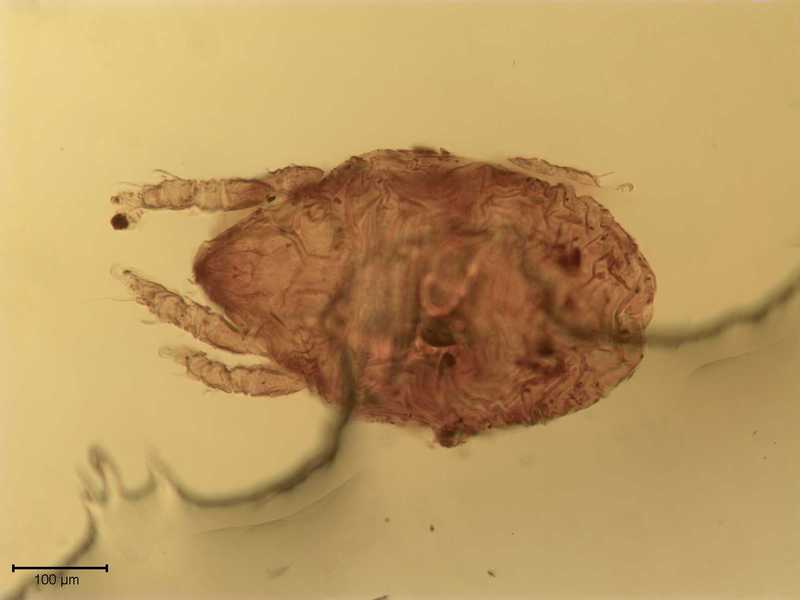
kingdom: Animalia
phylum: Arthropoda
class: Arachnida
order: Sarcoptiformes
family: Scutoverticidae
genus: Scutovertex
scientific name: Scutovertex minutus
